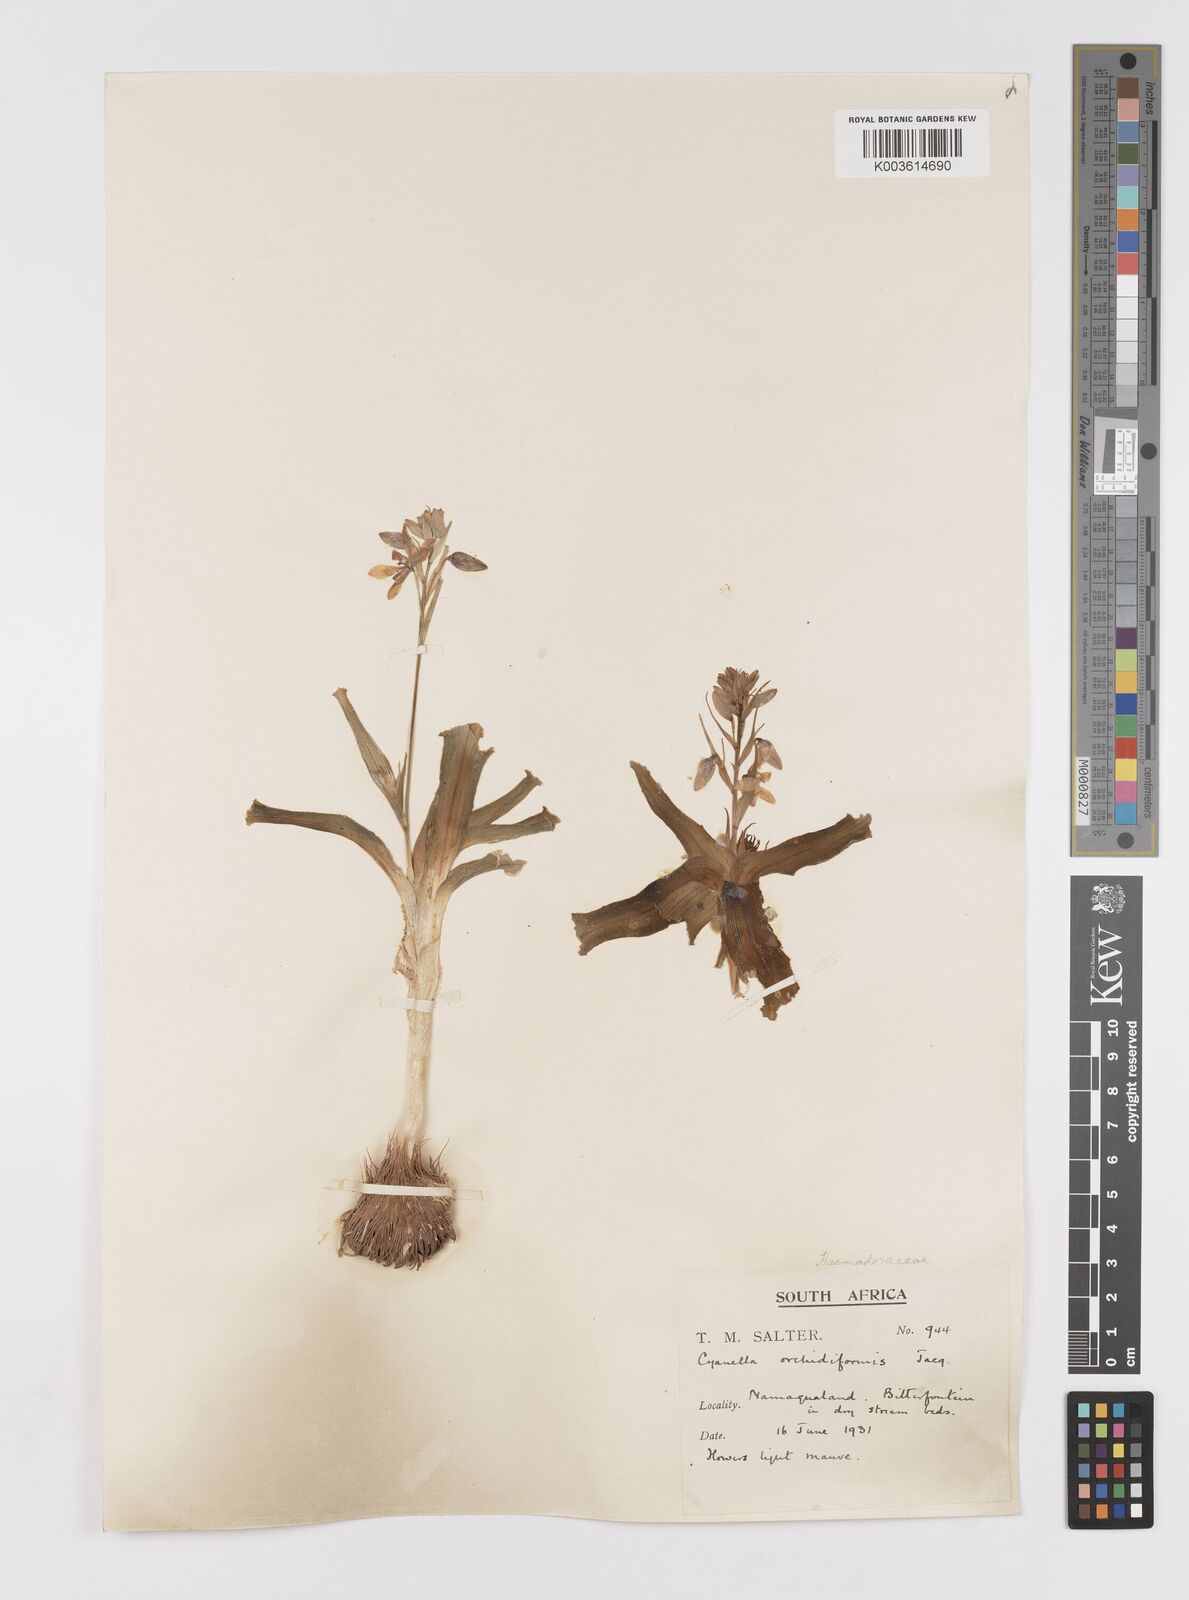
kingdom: Plantae
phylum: Tracheophyta
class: Liliopsida
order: Asparagales
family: Tecophilaeaceae
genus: Cyanella
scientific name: Cyanella orchidiformis
